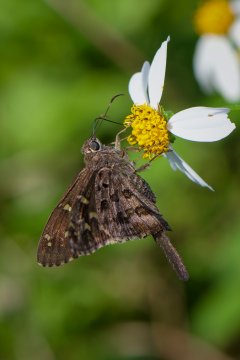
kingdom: Animalia
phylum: Arthropoda
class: Insecta
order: Lepidoptera
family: Hesperiidae
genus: Urbanus
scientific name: Urbanus dorantes
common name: Dorantes Longtail
